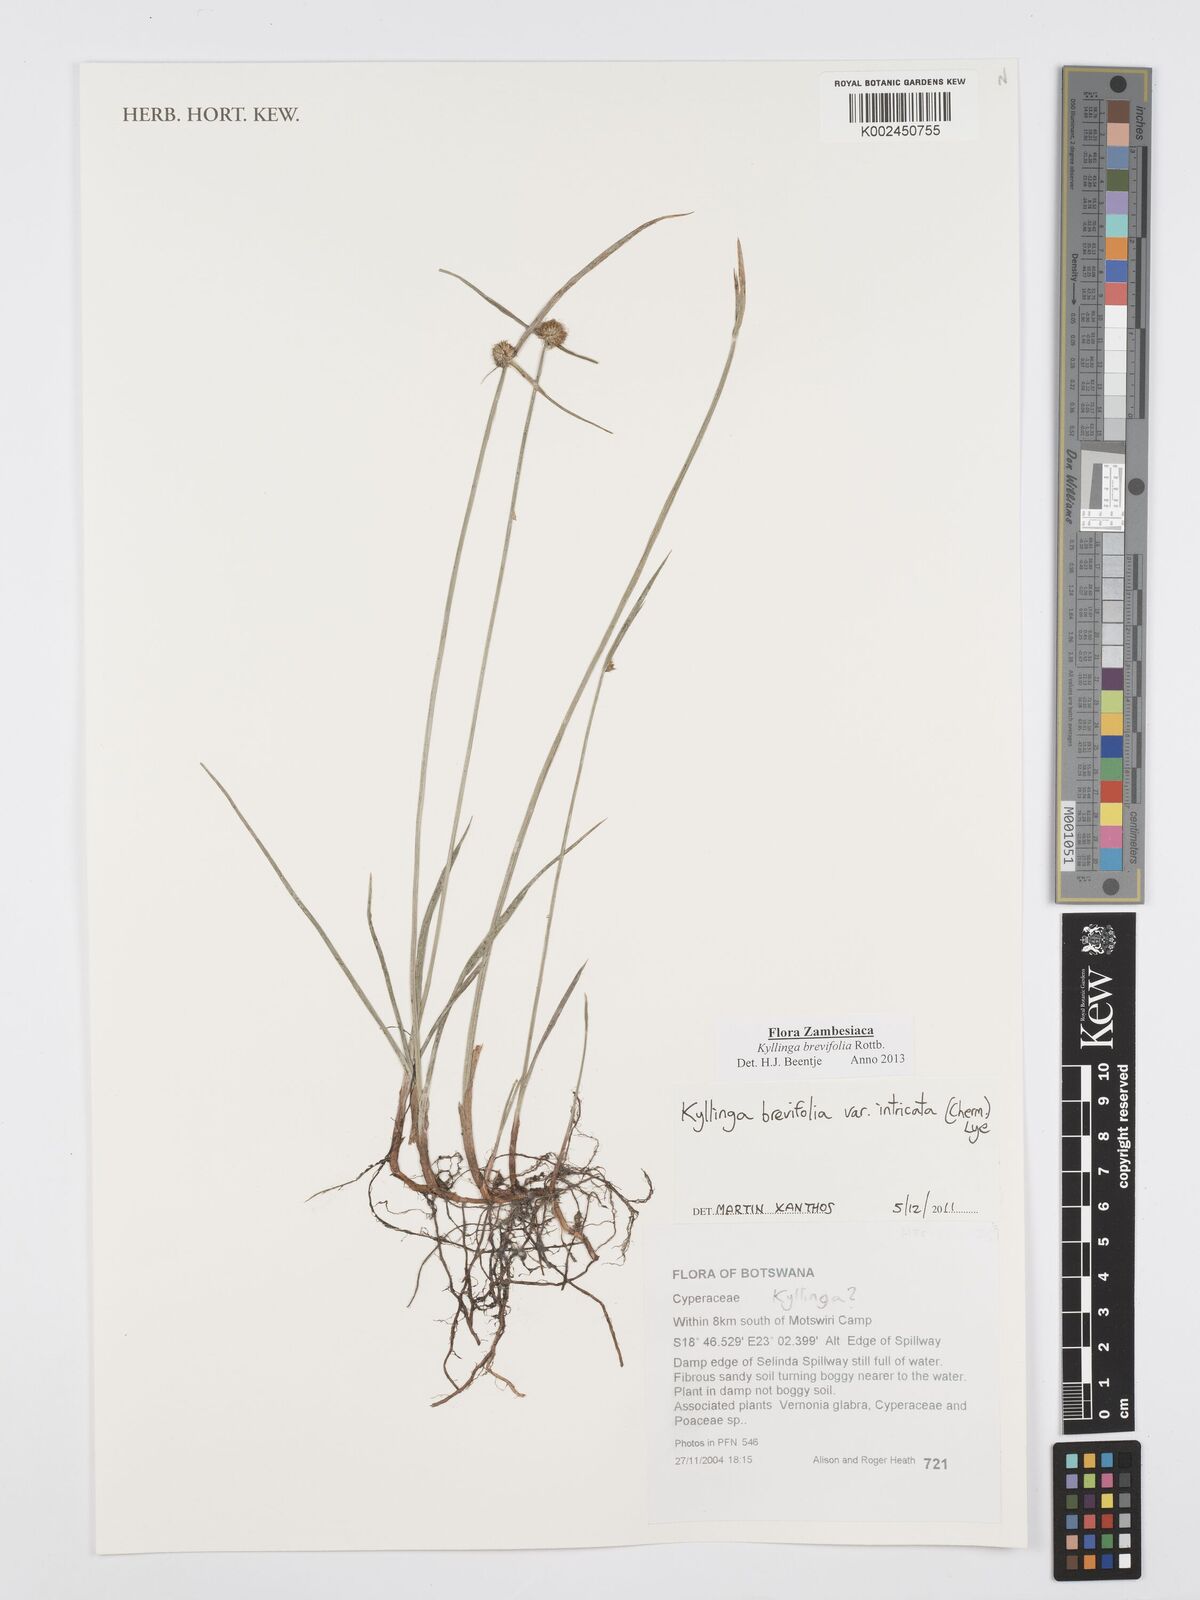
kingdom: Plantae
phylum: Tracheophyta
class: Liliopsida
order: Poales
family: Cyperaceae
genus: Cyperus
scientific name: Cyperus brevifolius
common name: Globe kyllinga
